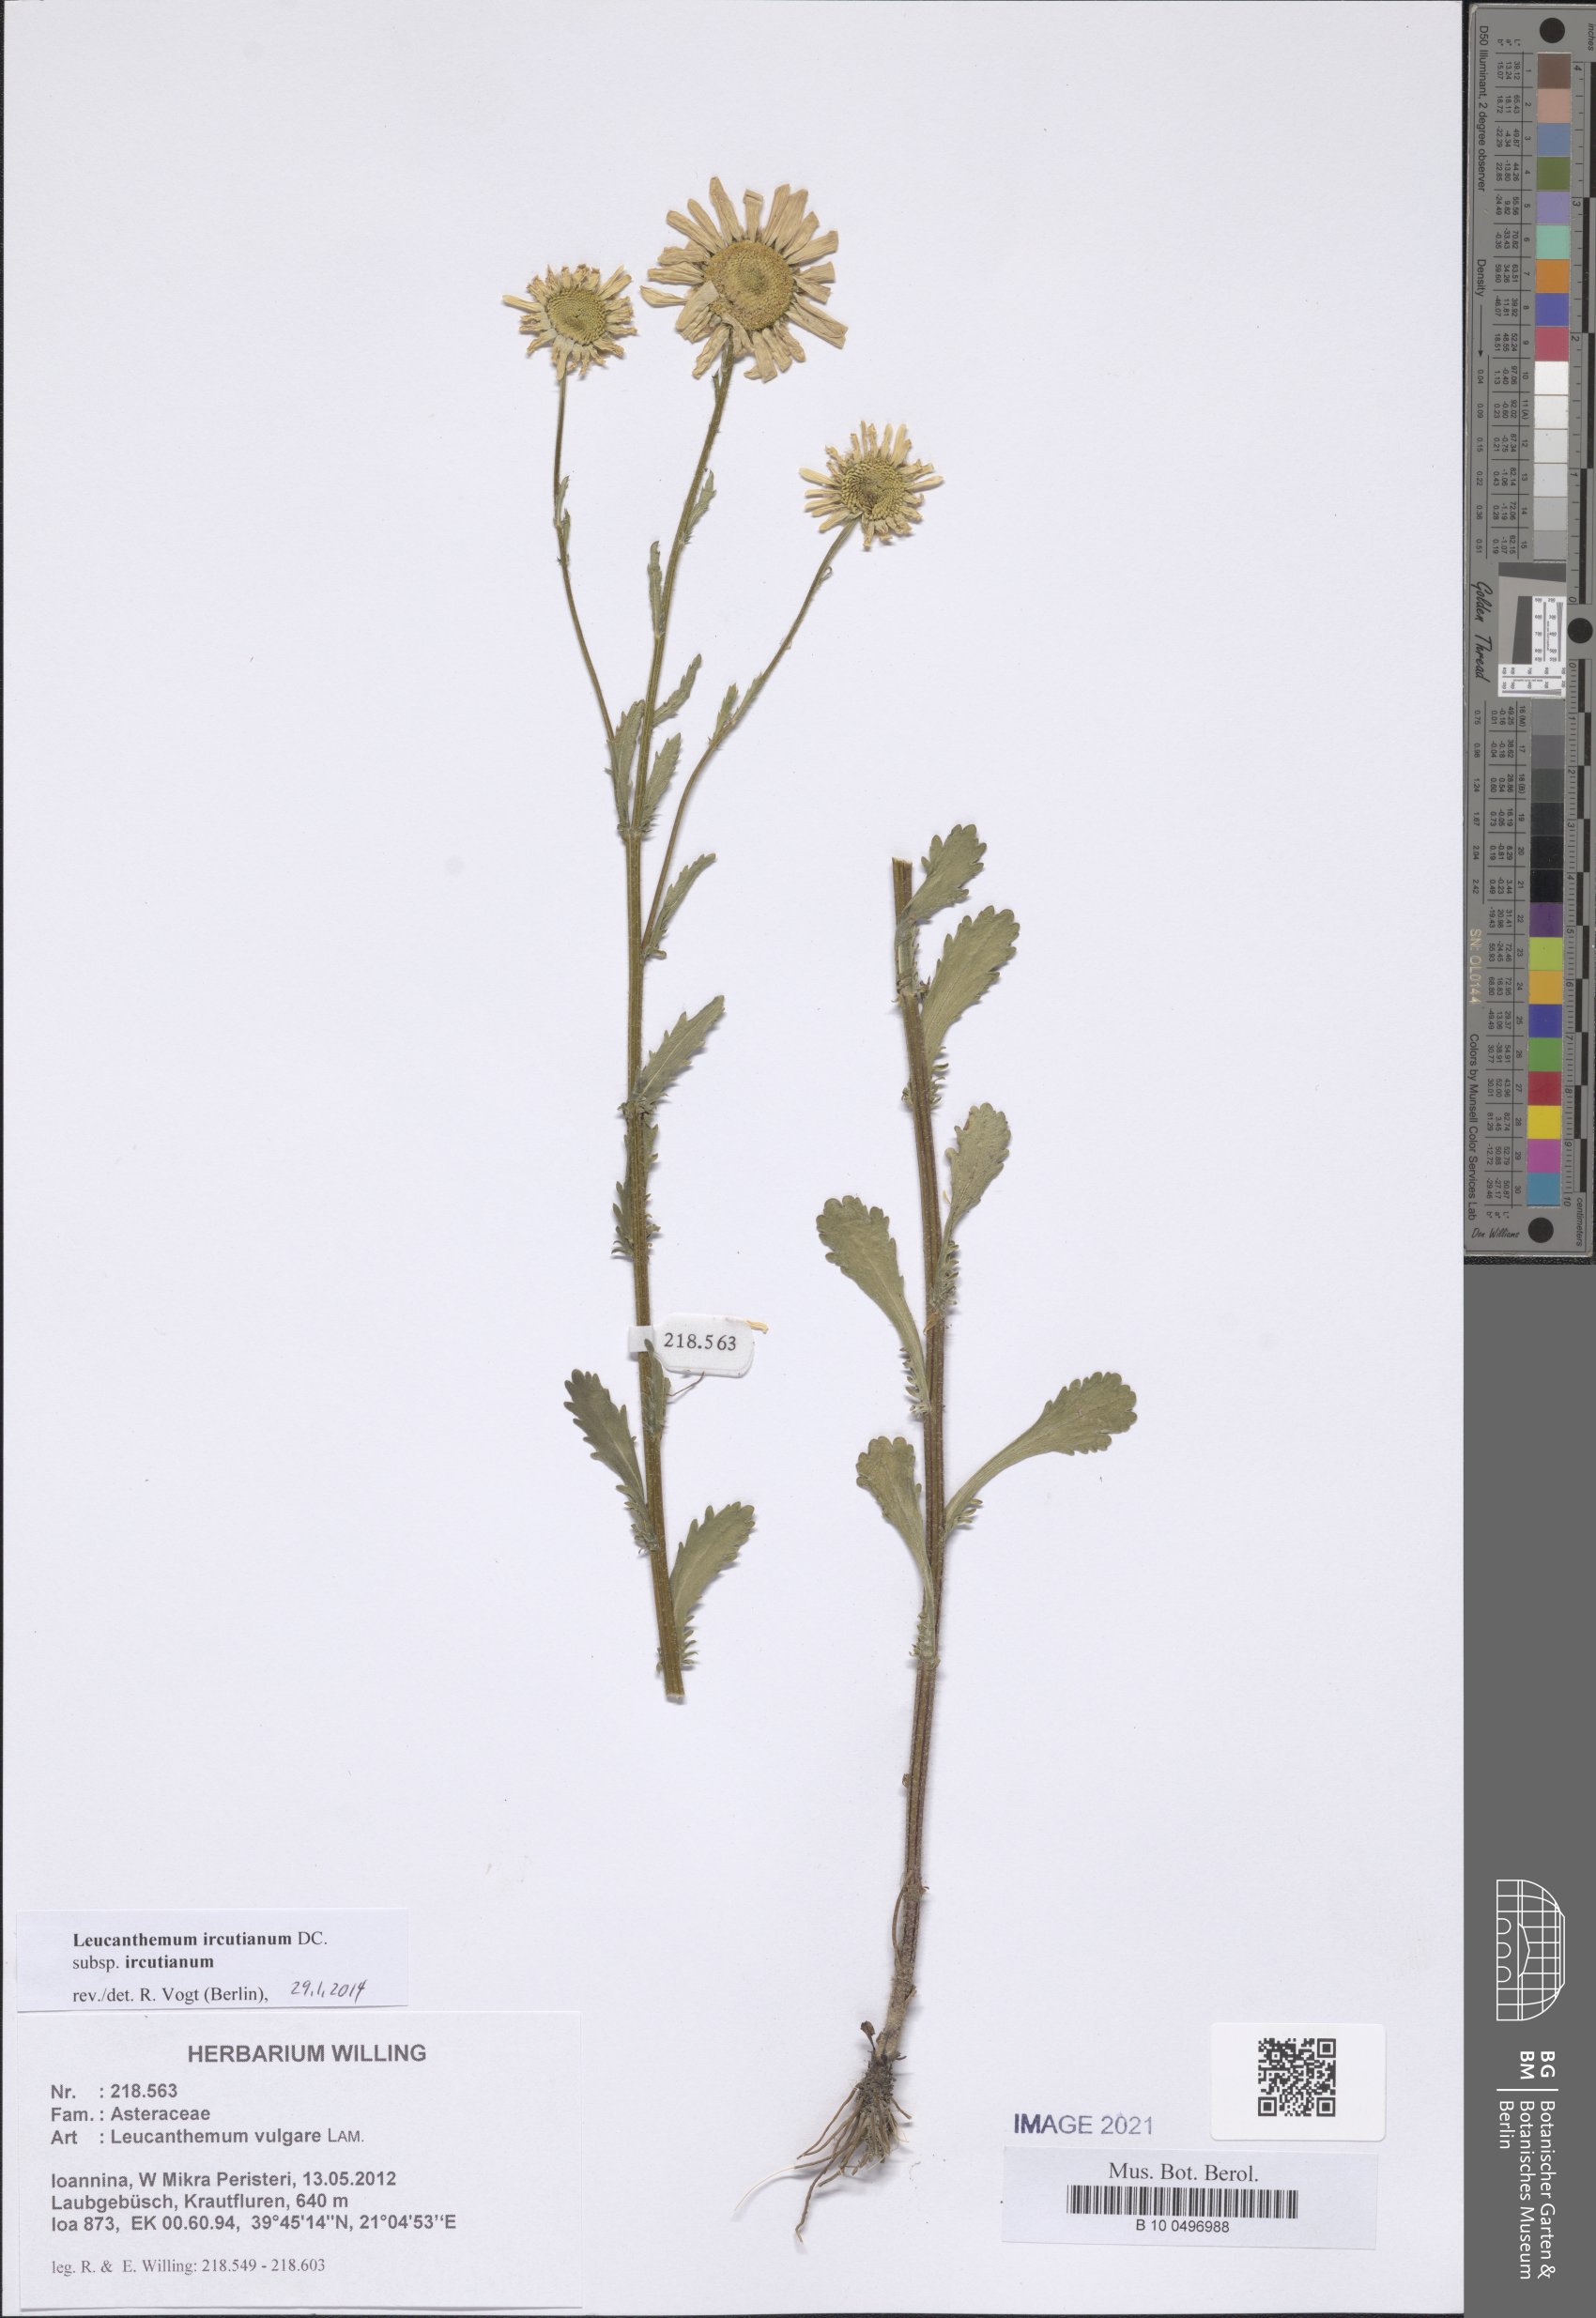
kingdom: Plantae
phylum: Tracheophyta
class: Magnoliopsida
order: Asterales
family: Asteraceae
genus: Leucanthemum
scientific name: Leucanthemum ircutianum
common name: Daisy
